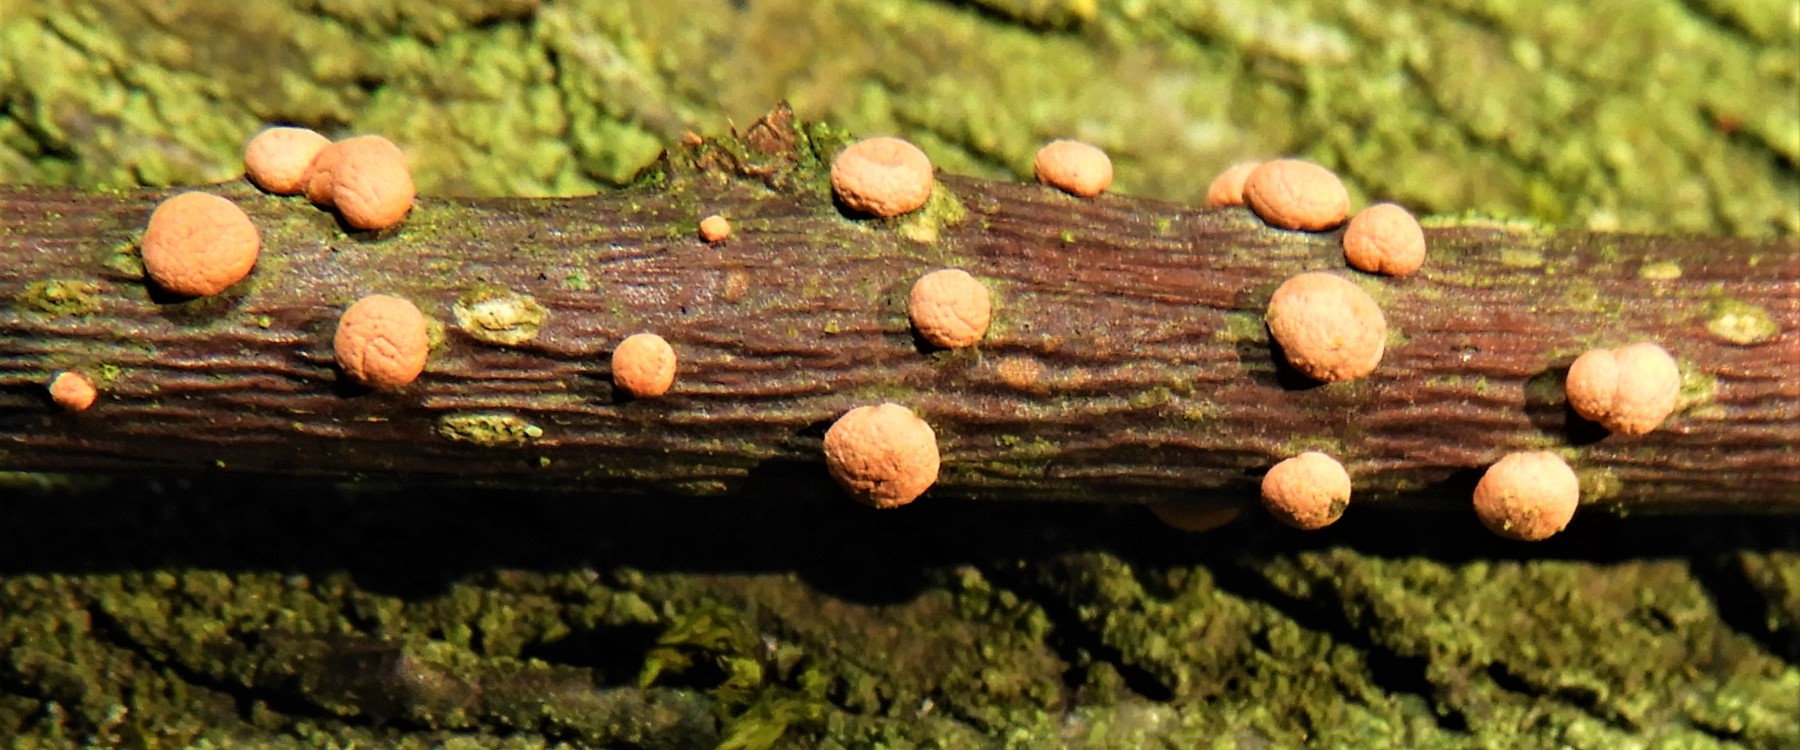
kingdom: Fungi
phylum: Ascomycota
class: Sordariomycetes
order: Hypocreales
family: Nectriaceae
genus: Nectria
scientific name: Nectria cinnabarina
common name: almindelig cinnobersvamp
